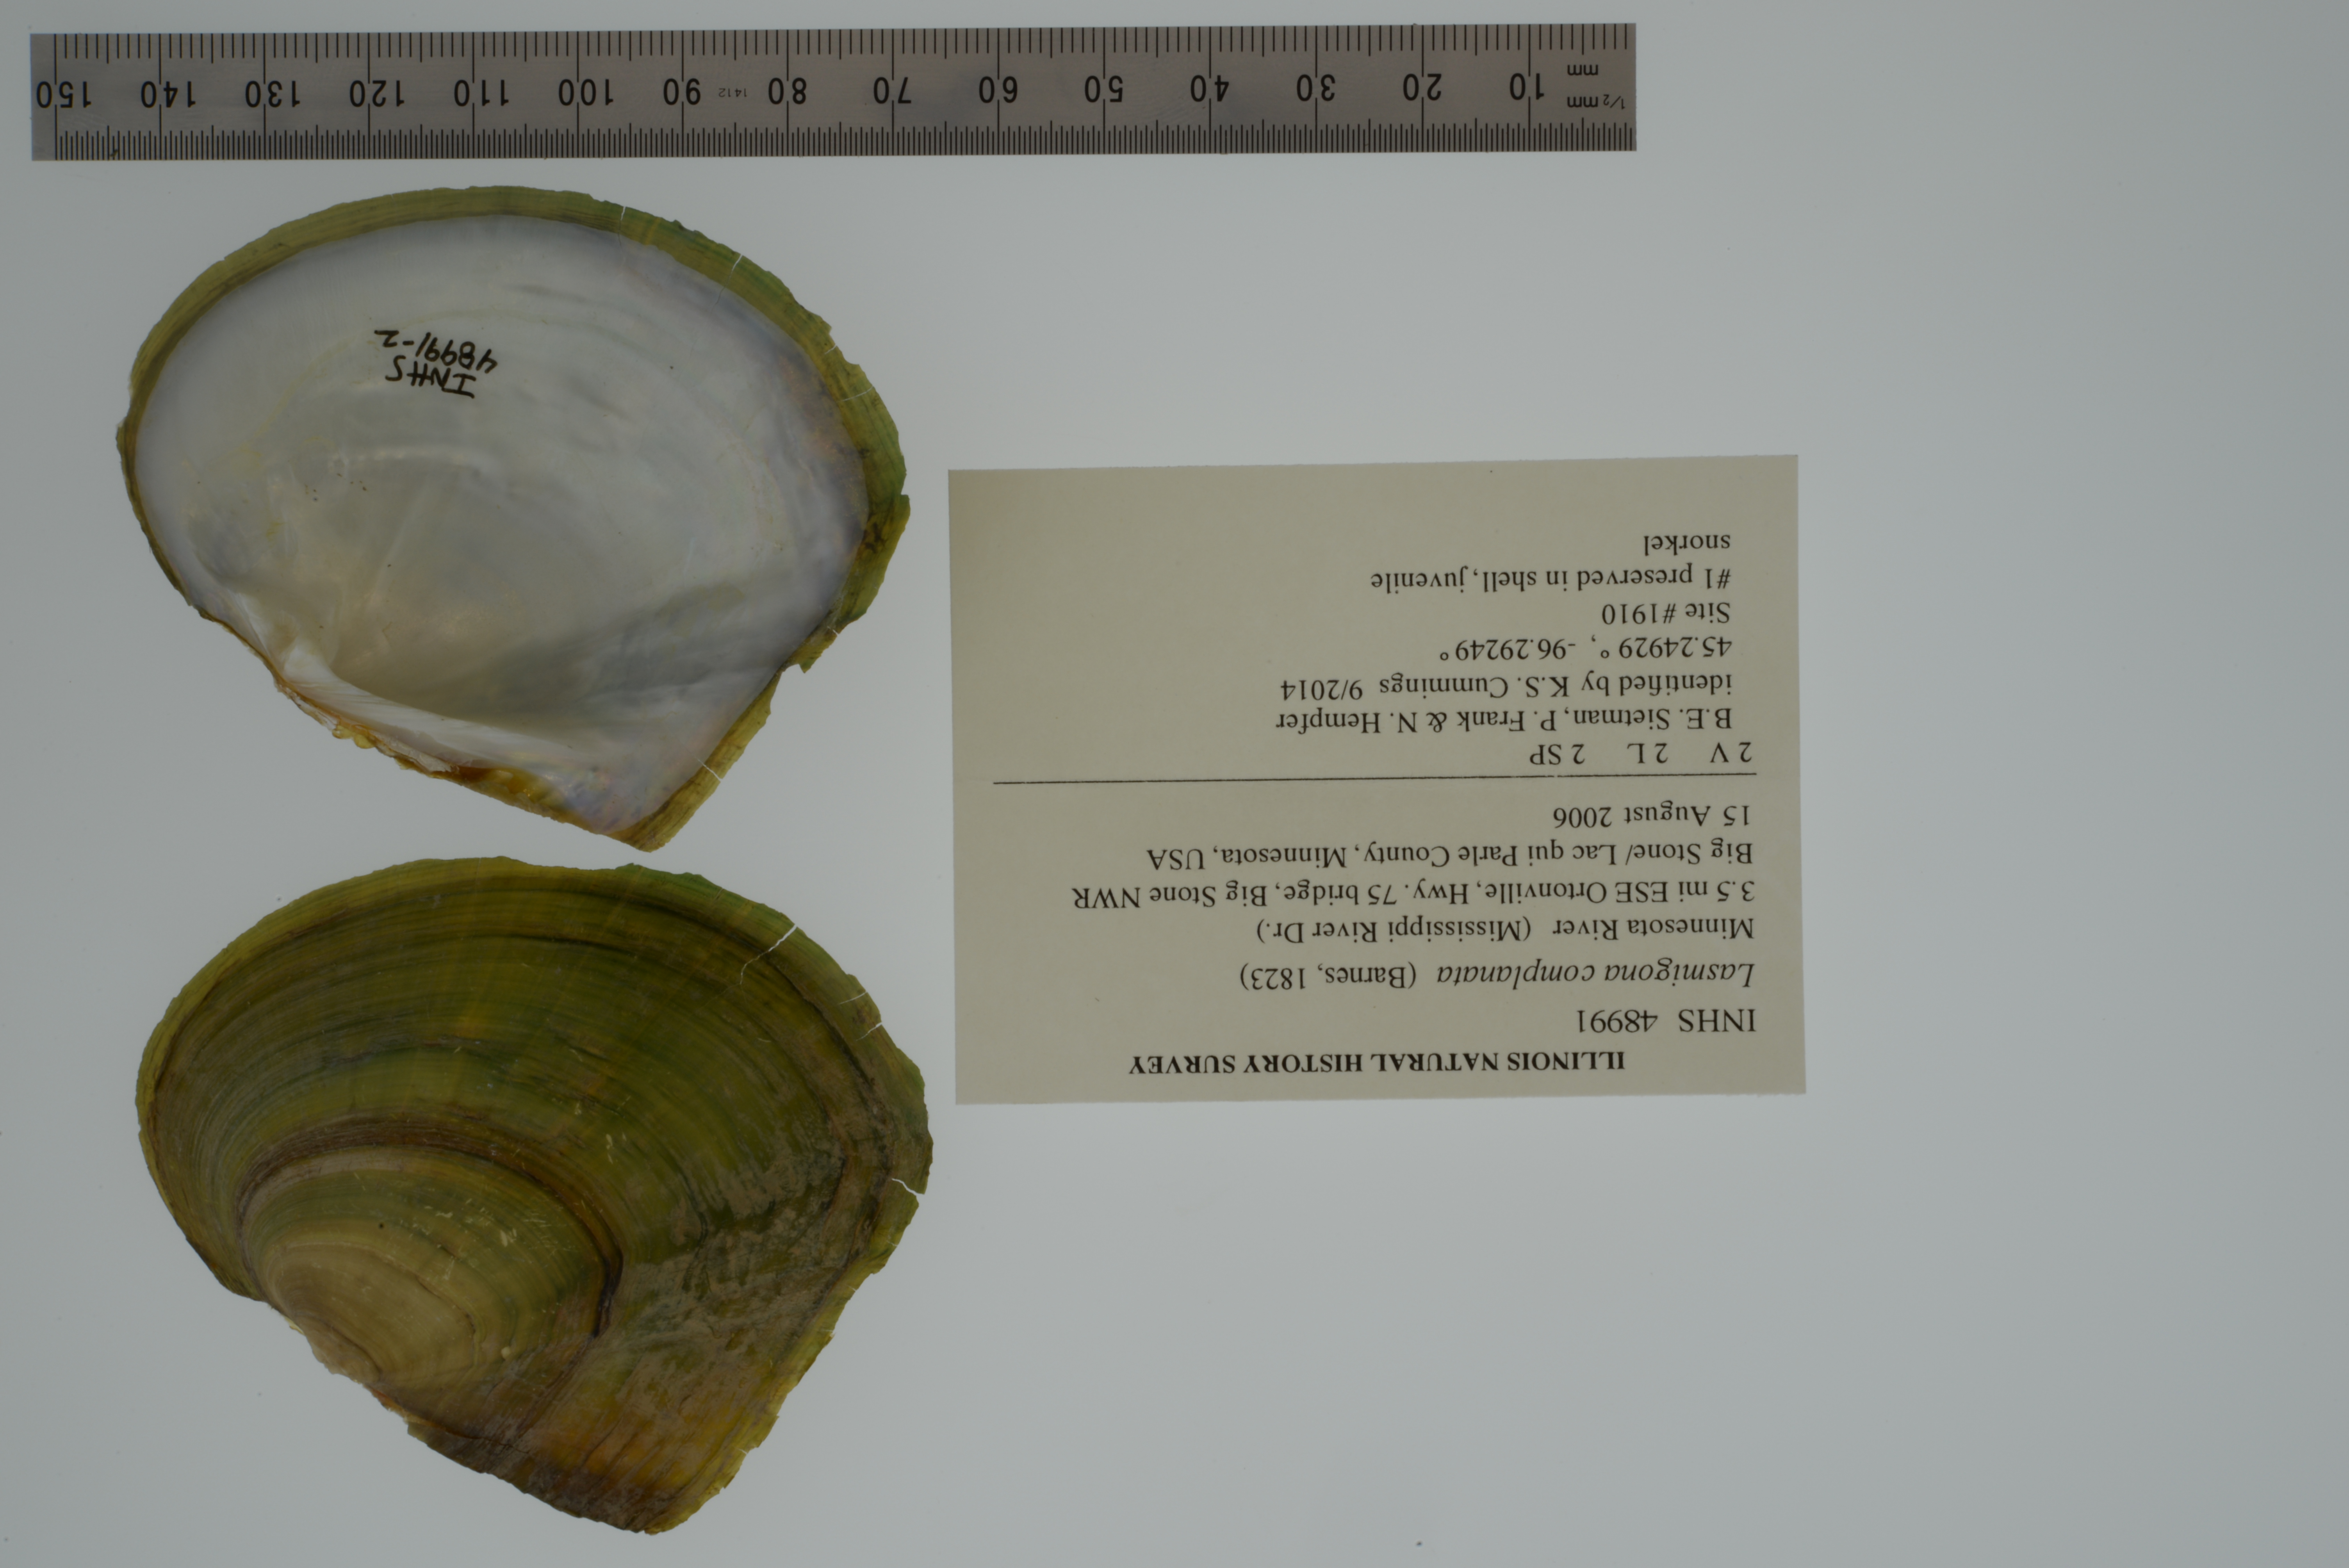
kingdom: Animalia
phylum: Mollusca
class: Bivalvia
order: Unionida
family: Unionidae
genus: Lasmigona
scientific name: Lasmigona complanata
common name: White heelsplitter
